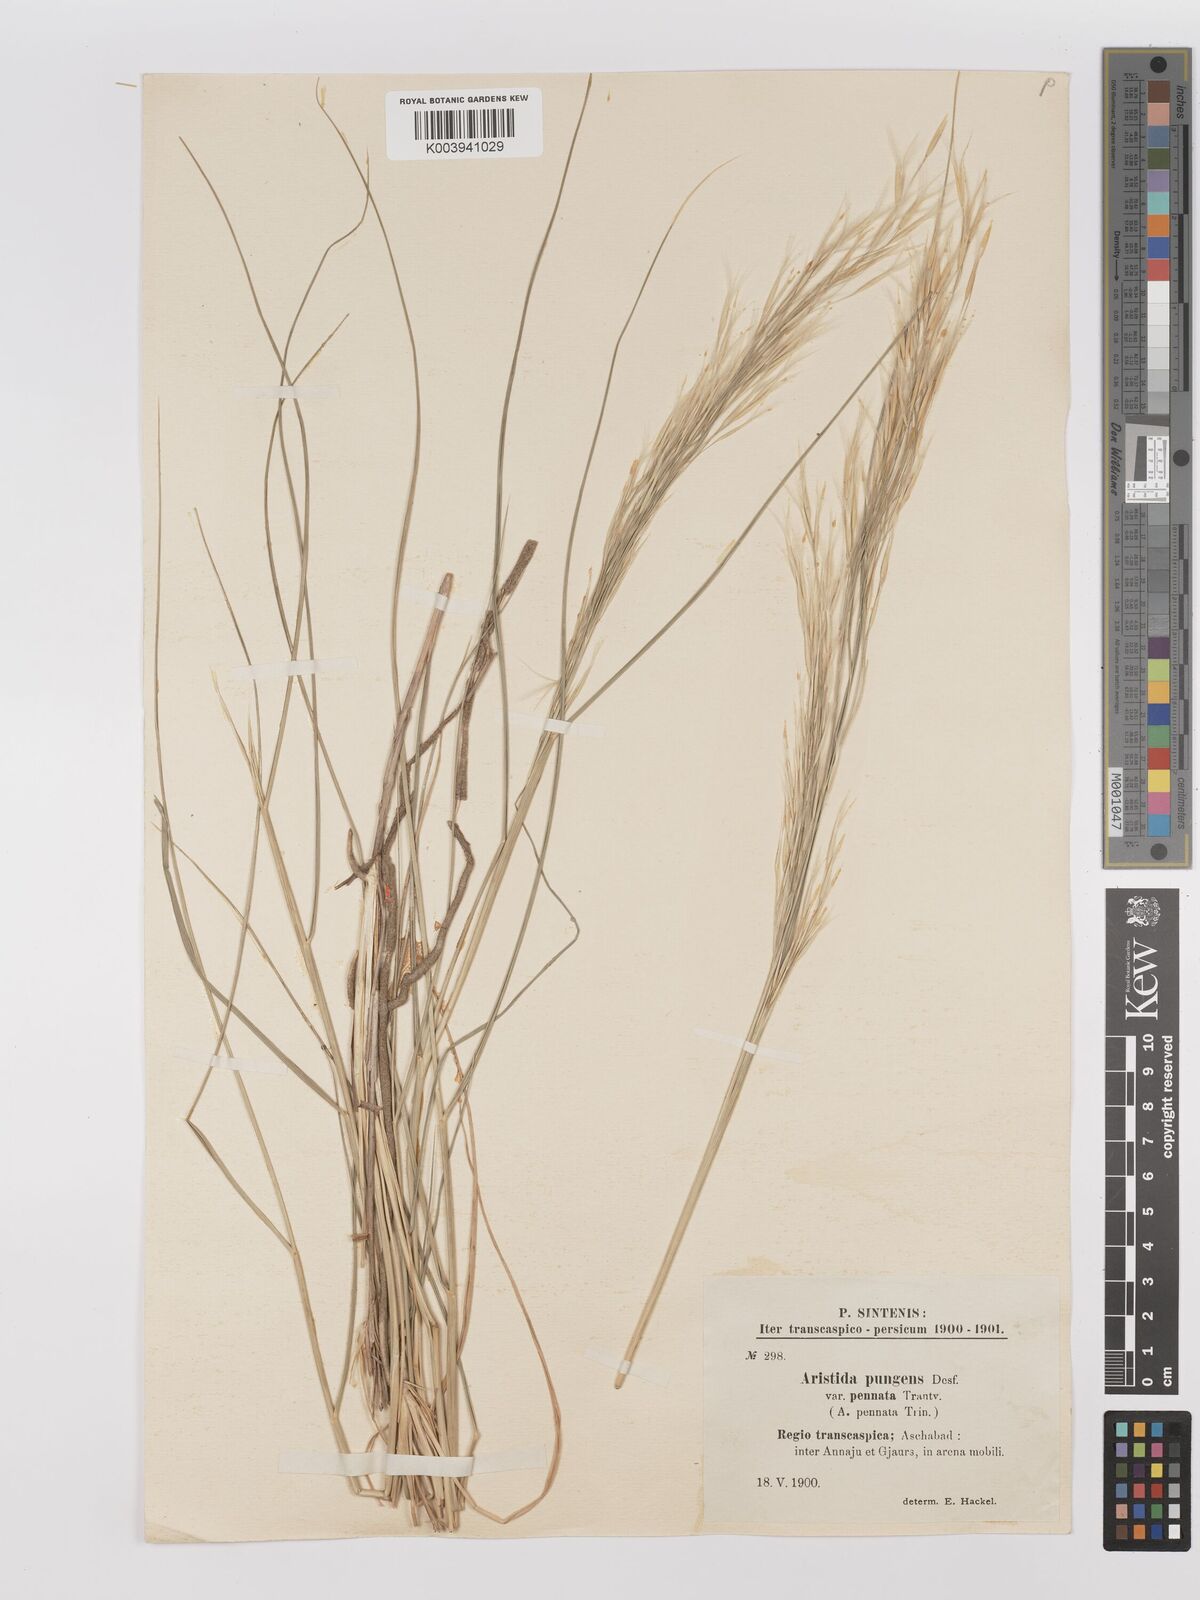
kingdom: Plantae
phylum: Tracheophyta
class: Liliopsida
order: Poales
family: Poaceae
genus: Stipagrostis
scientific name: Stipagrostis pungens
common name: Three-awn grass
